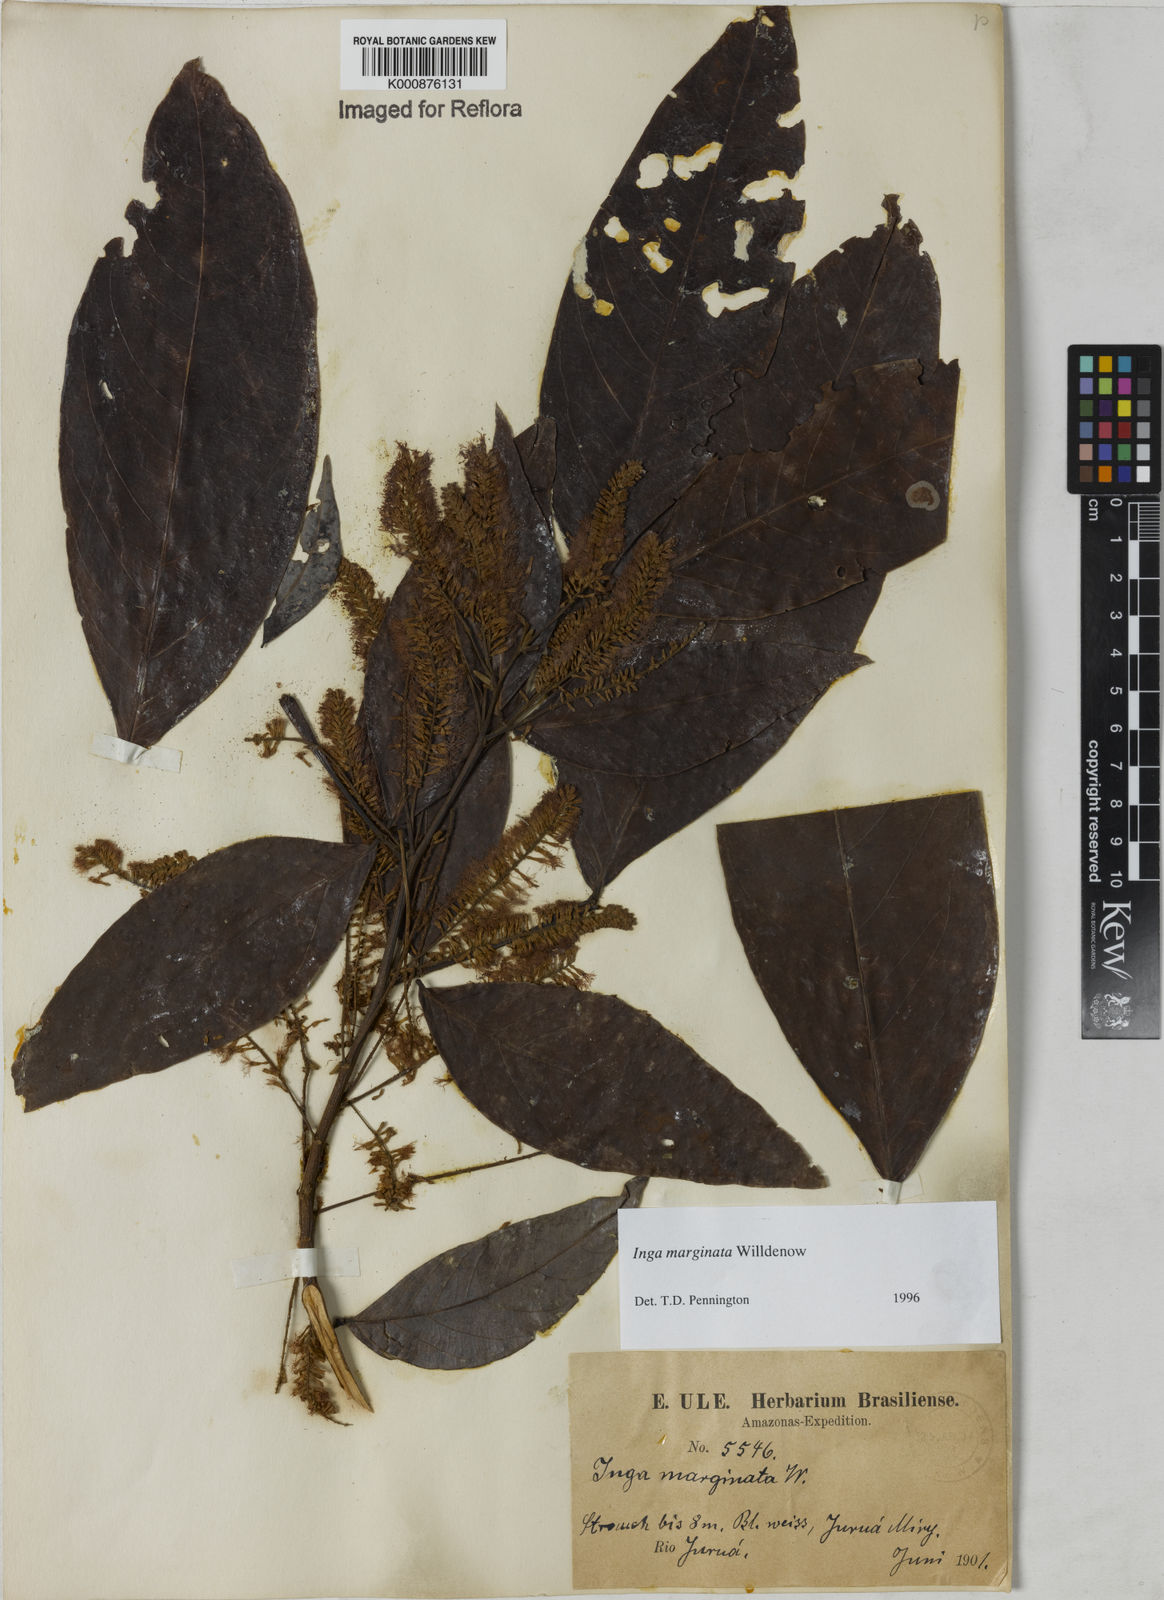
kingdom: Plantae
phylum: Tracheophyta
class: Magnoliopsida
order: Fabales
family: Fabaceae
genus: Inga
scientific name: Inga marginata
